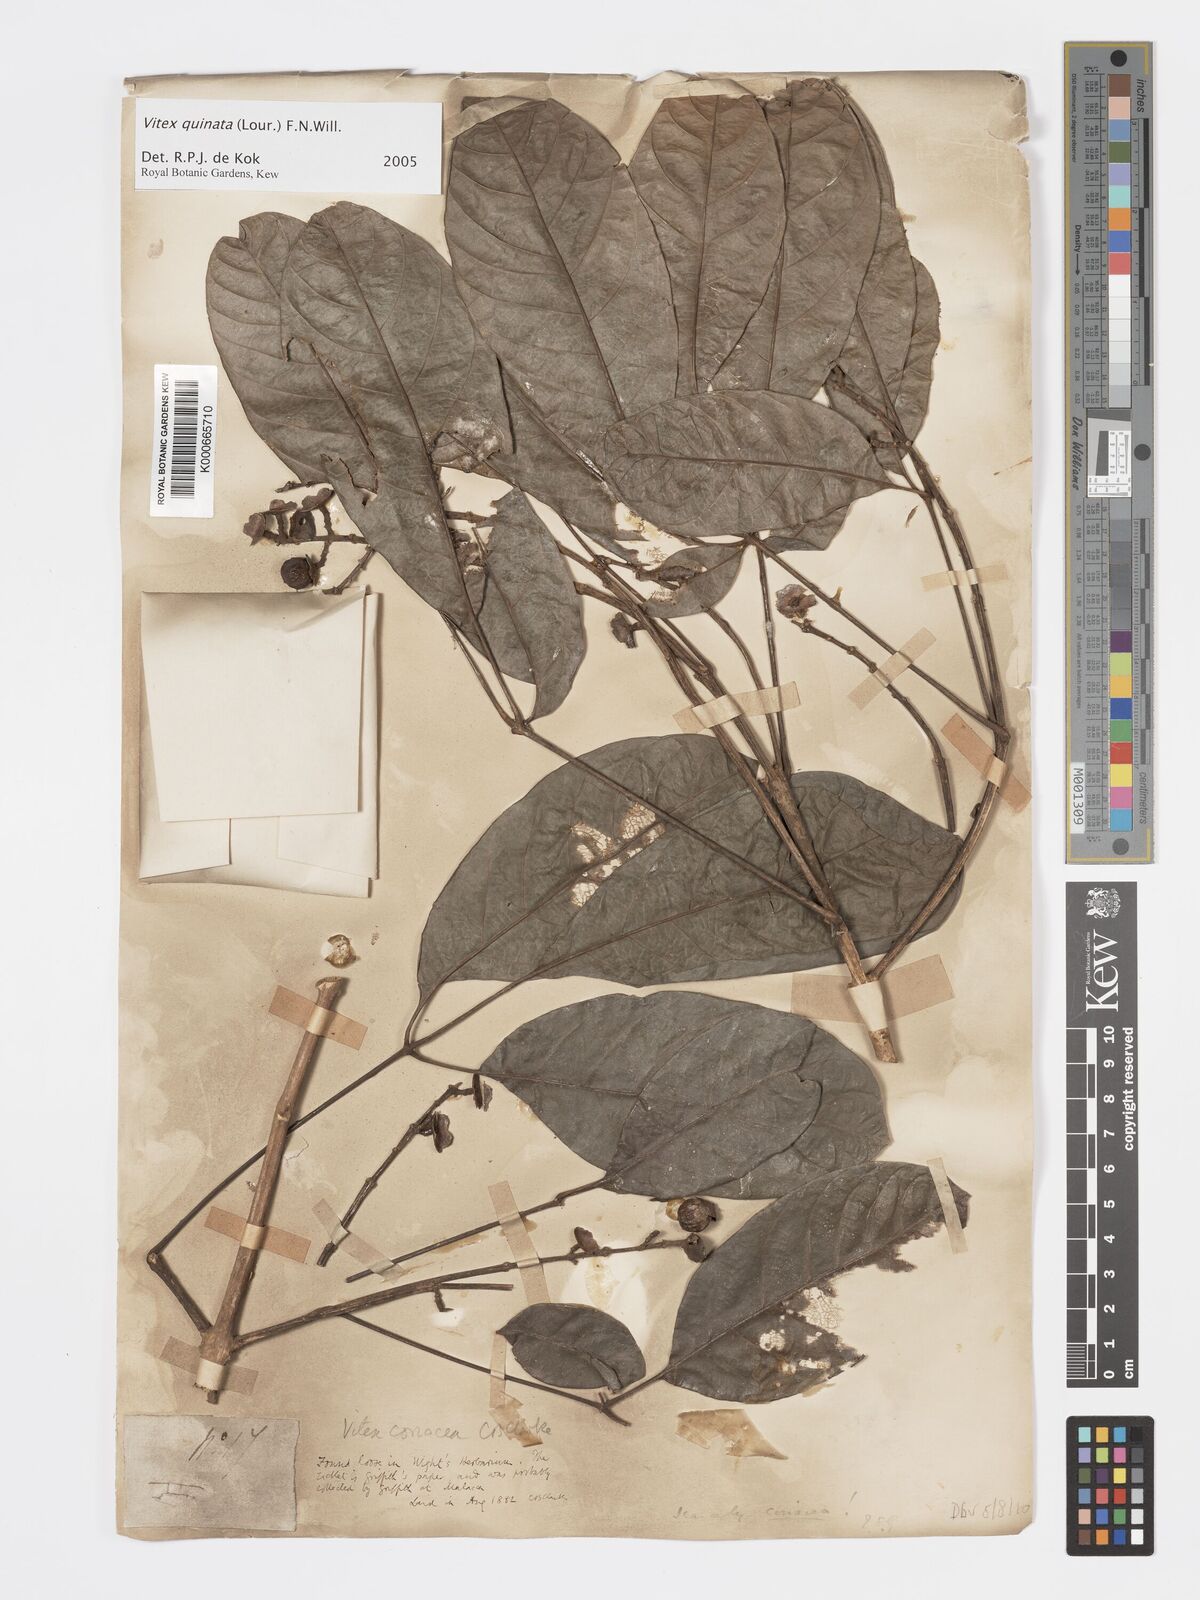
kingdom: Plantae
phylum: Tracheophyta
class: Magnoliopsida
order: Lamiales
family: Lamiaceae
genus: Vitex
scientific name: Vitex quinata
